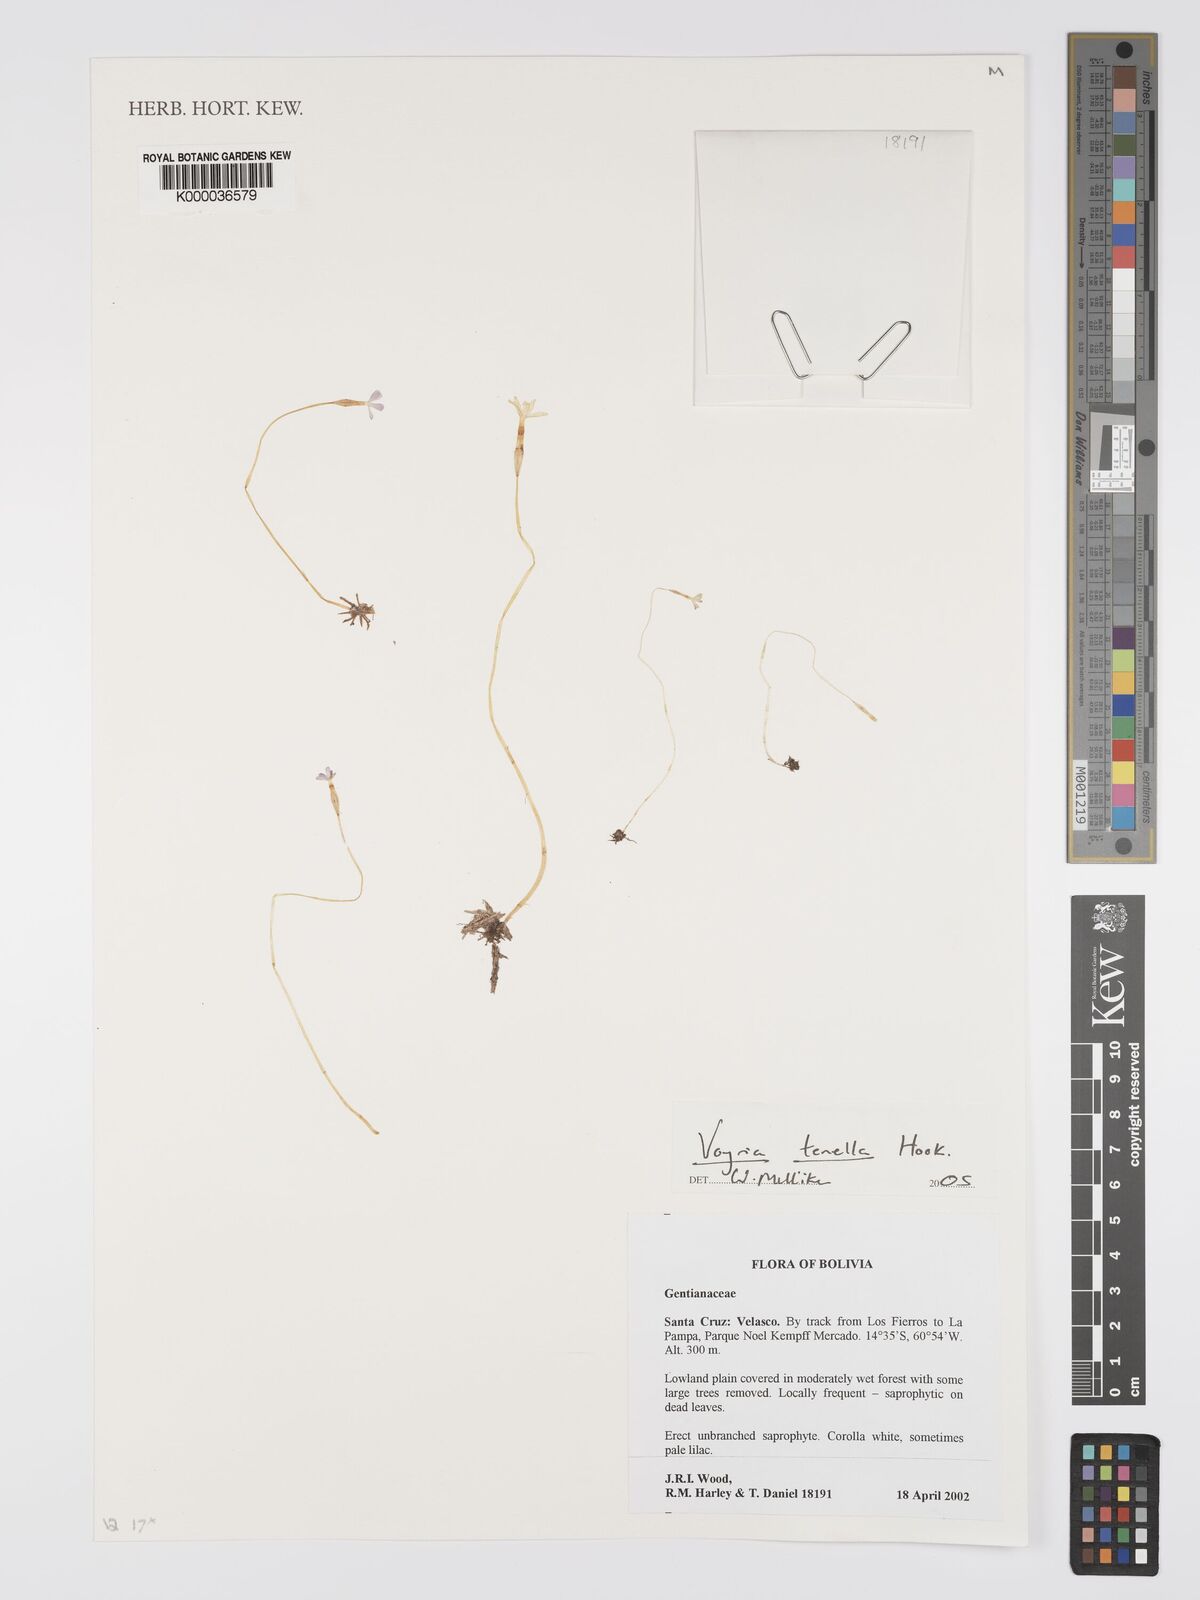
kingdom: Plantae
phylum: Tracheophyta
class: Magnoliopsida
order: Gentianales
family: Gentianaceae
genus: Voyria
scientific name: Voyria tenella
